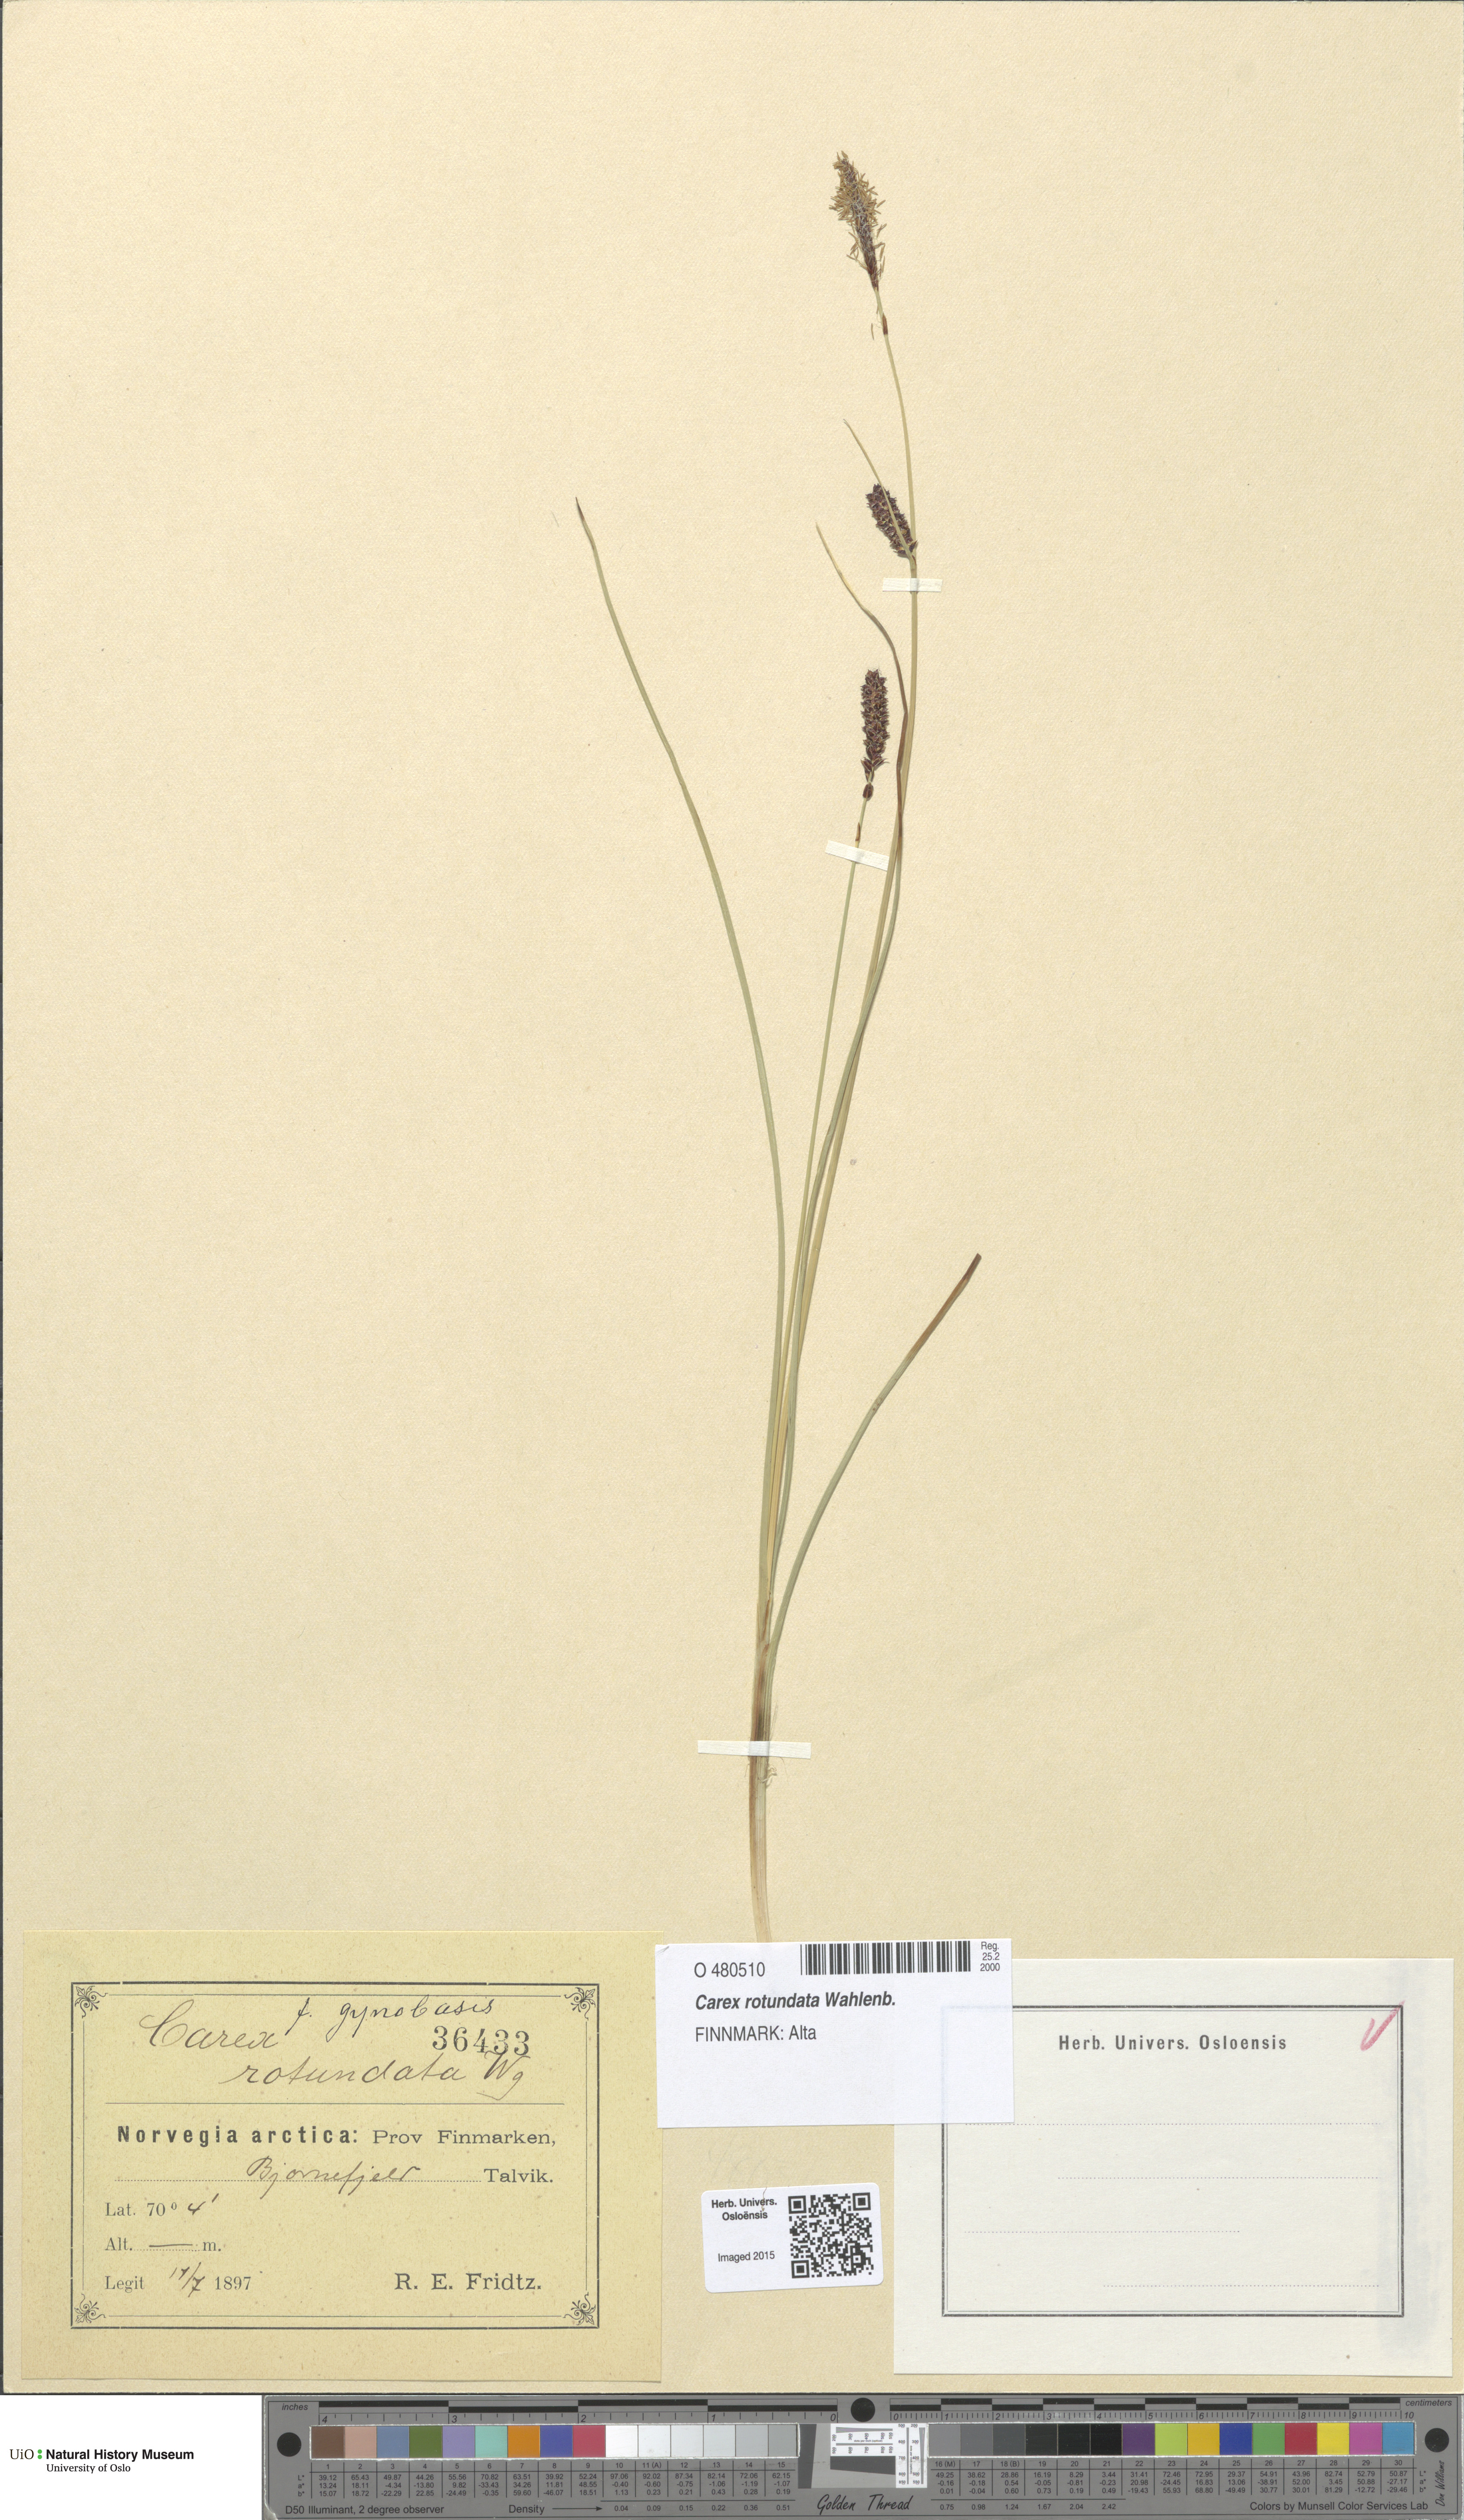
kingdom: Plantae
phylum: Tracheophyta
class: Liliopsida
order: Poales
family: Cyperaceae
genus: Carex
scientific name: Carex rotundata
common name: Round-fruited sedge
